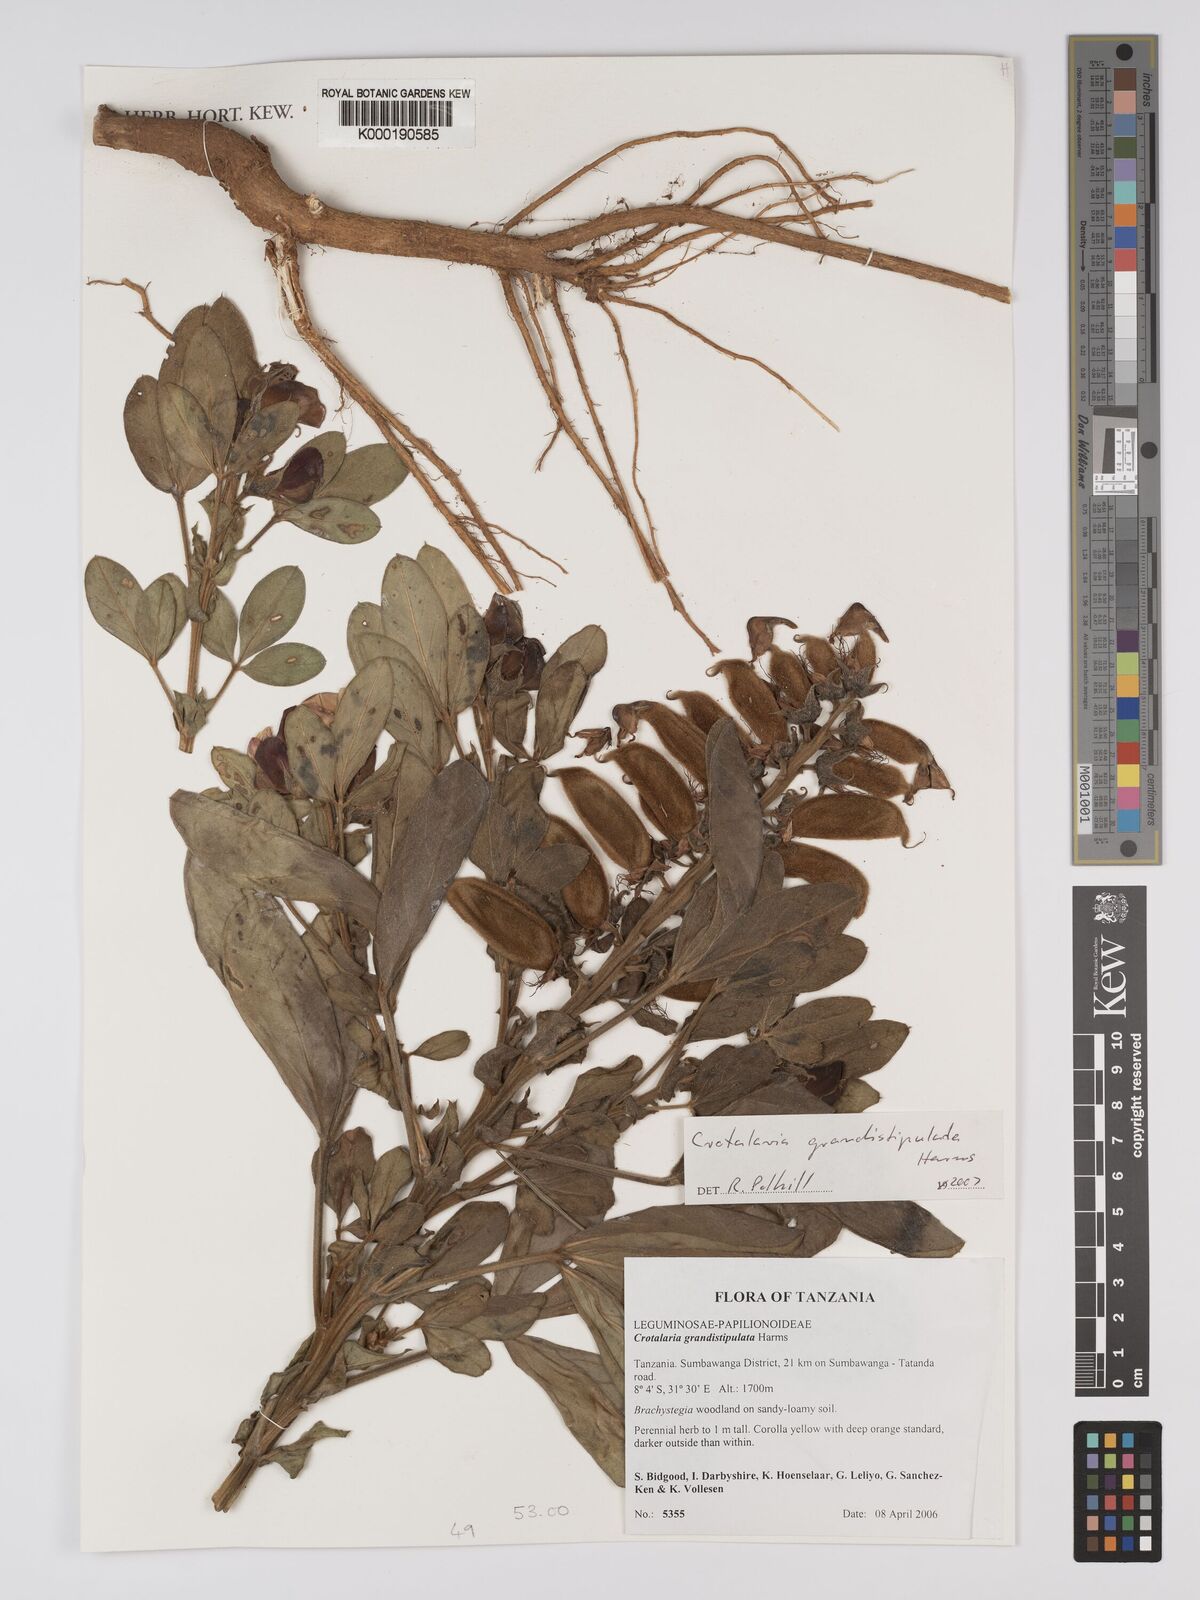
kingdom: Plantae
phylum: Tracheophyta
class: Magnoliopsida
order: Fabales
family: Fabaceae
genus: Crotalaria
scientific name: Crotalaria grandistipulata
